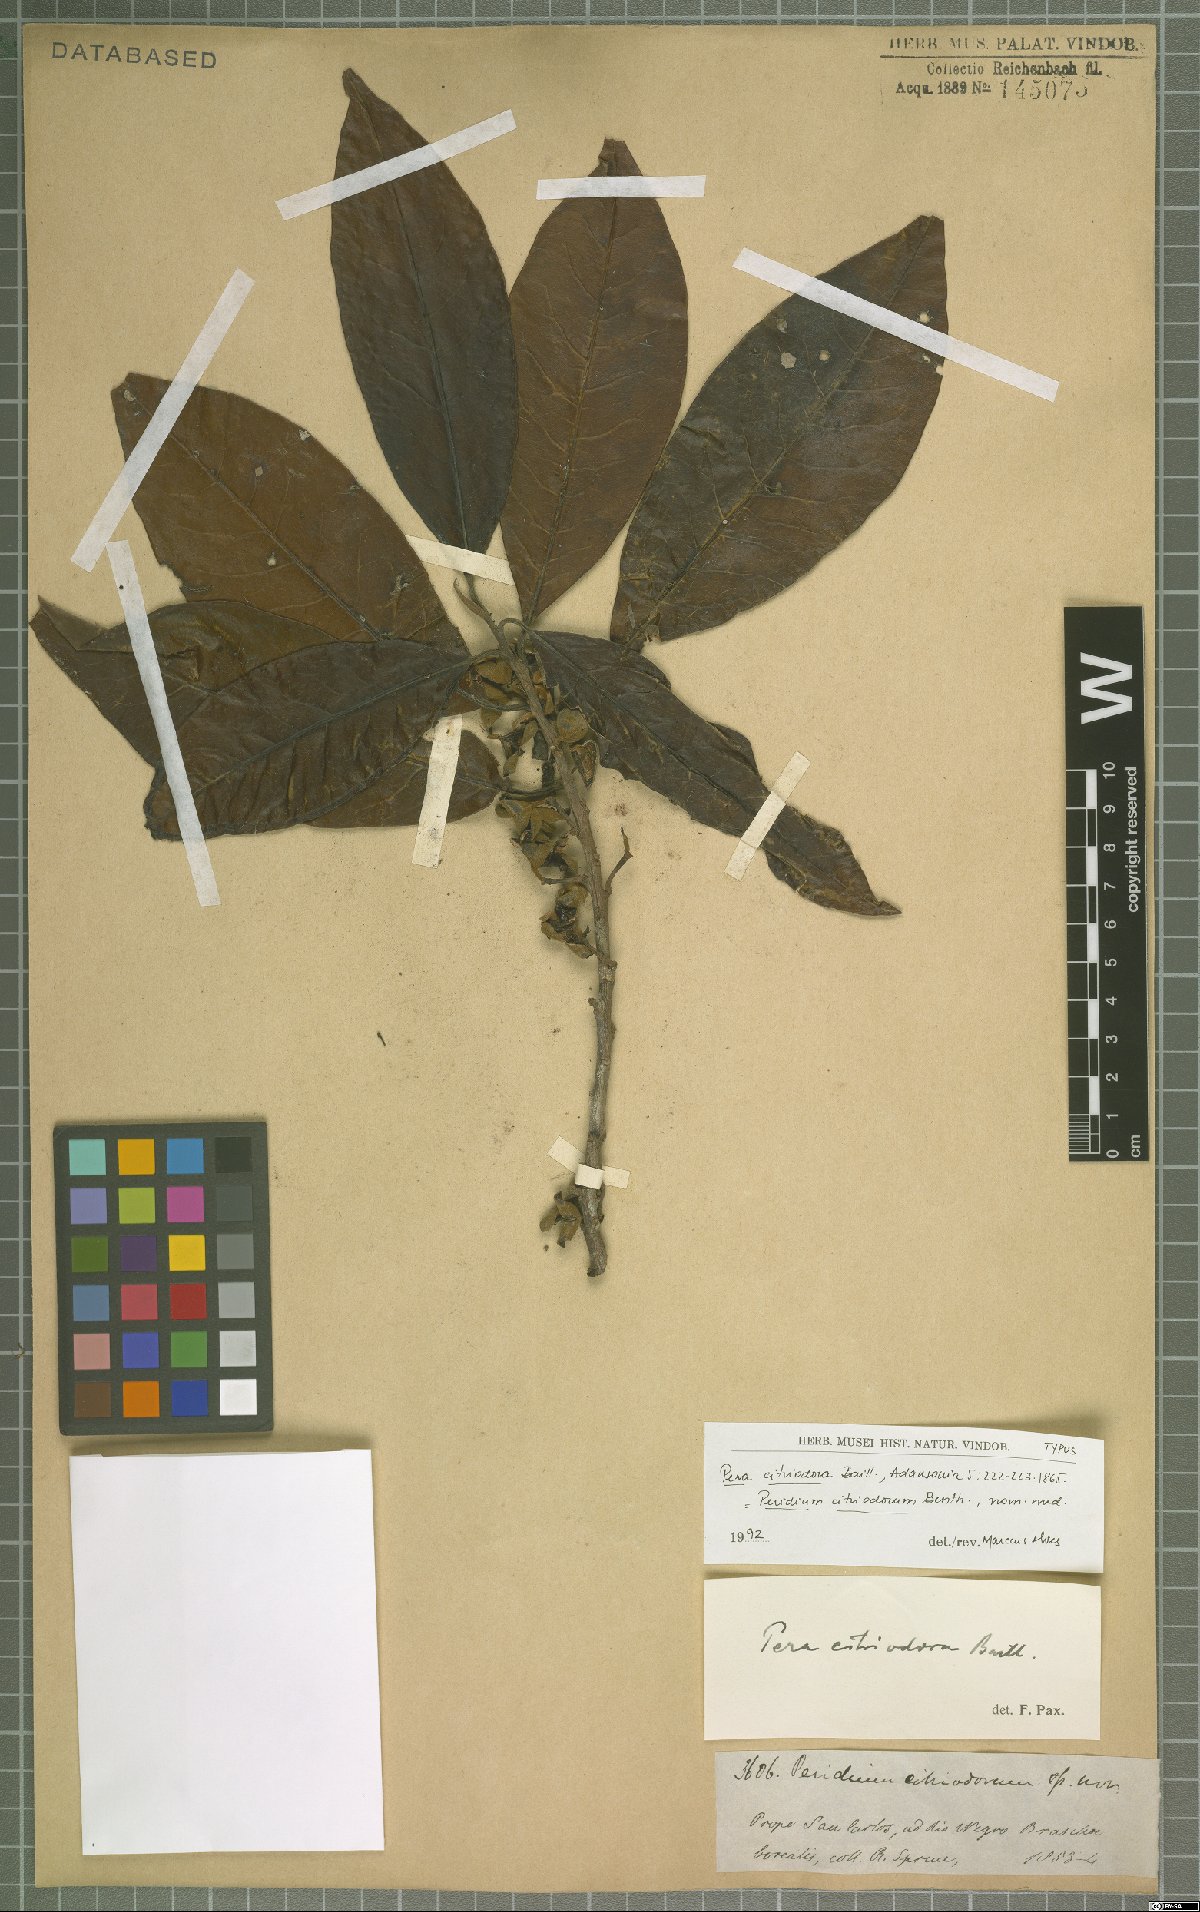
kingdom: Plantae
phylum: Tracheophyta
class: Magnoliopsida
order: Malpighiales
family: Peraceae
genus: Pera
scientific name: Pera citriodora
